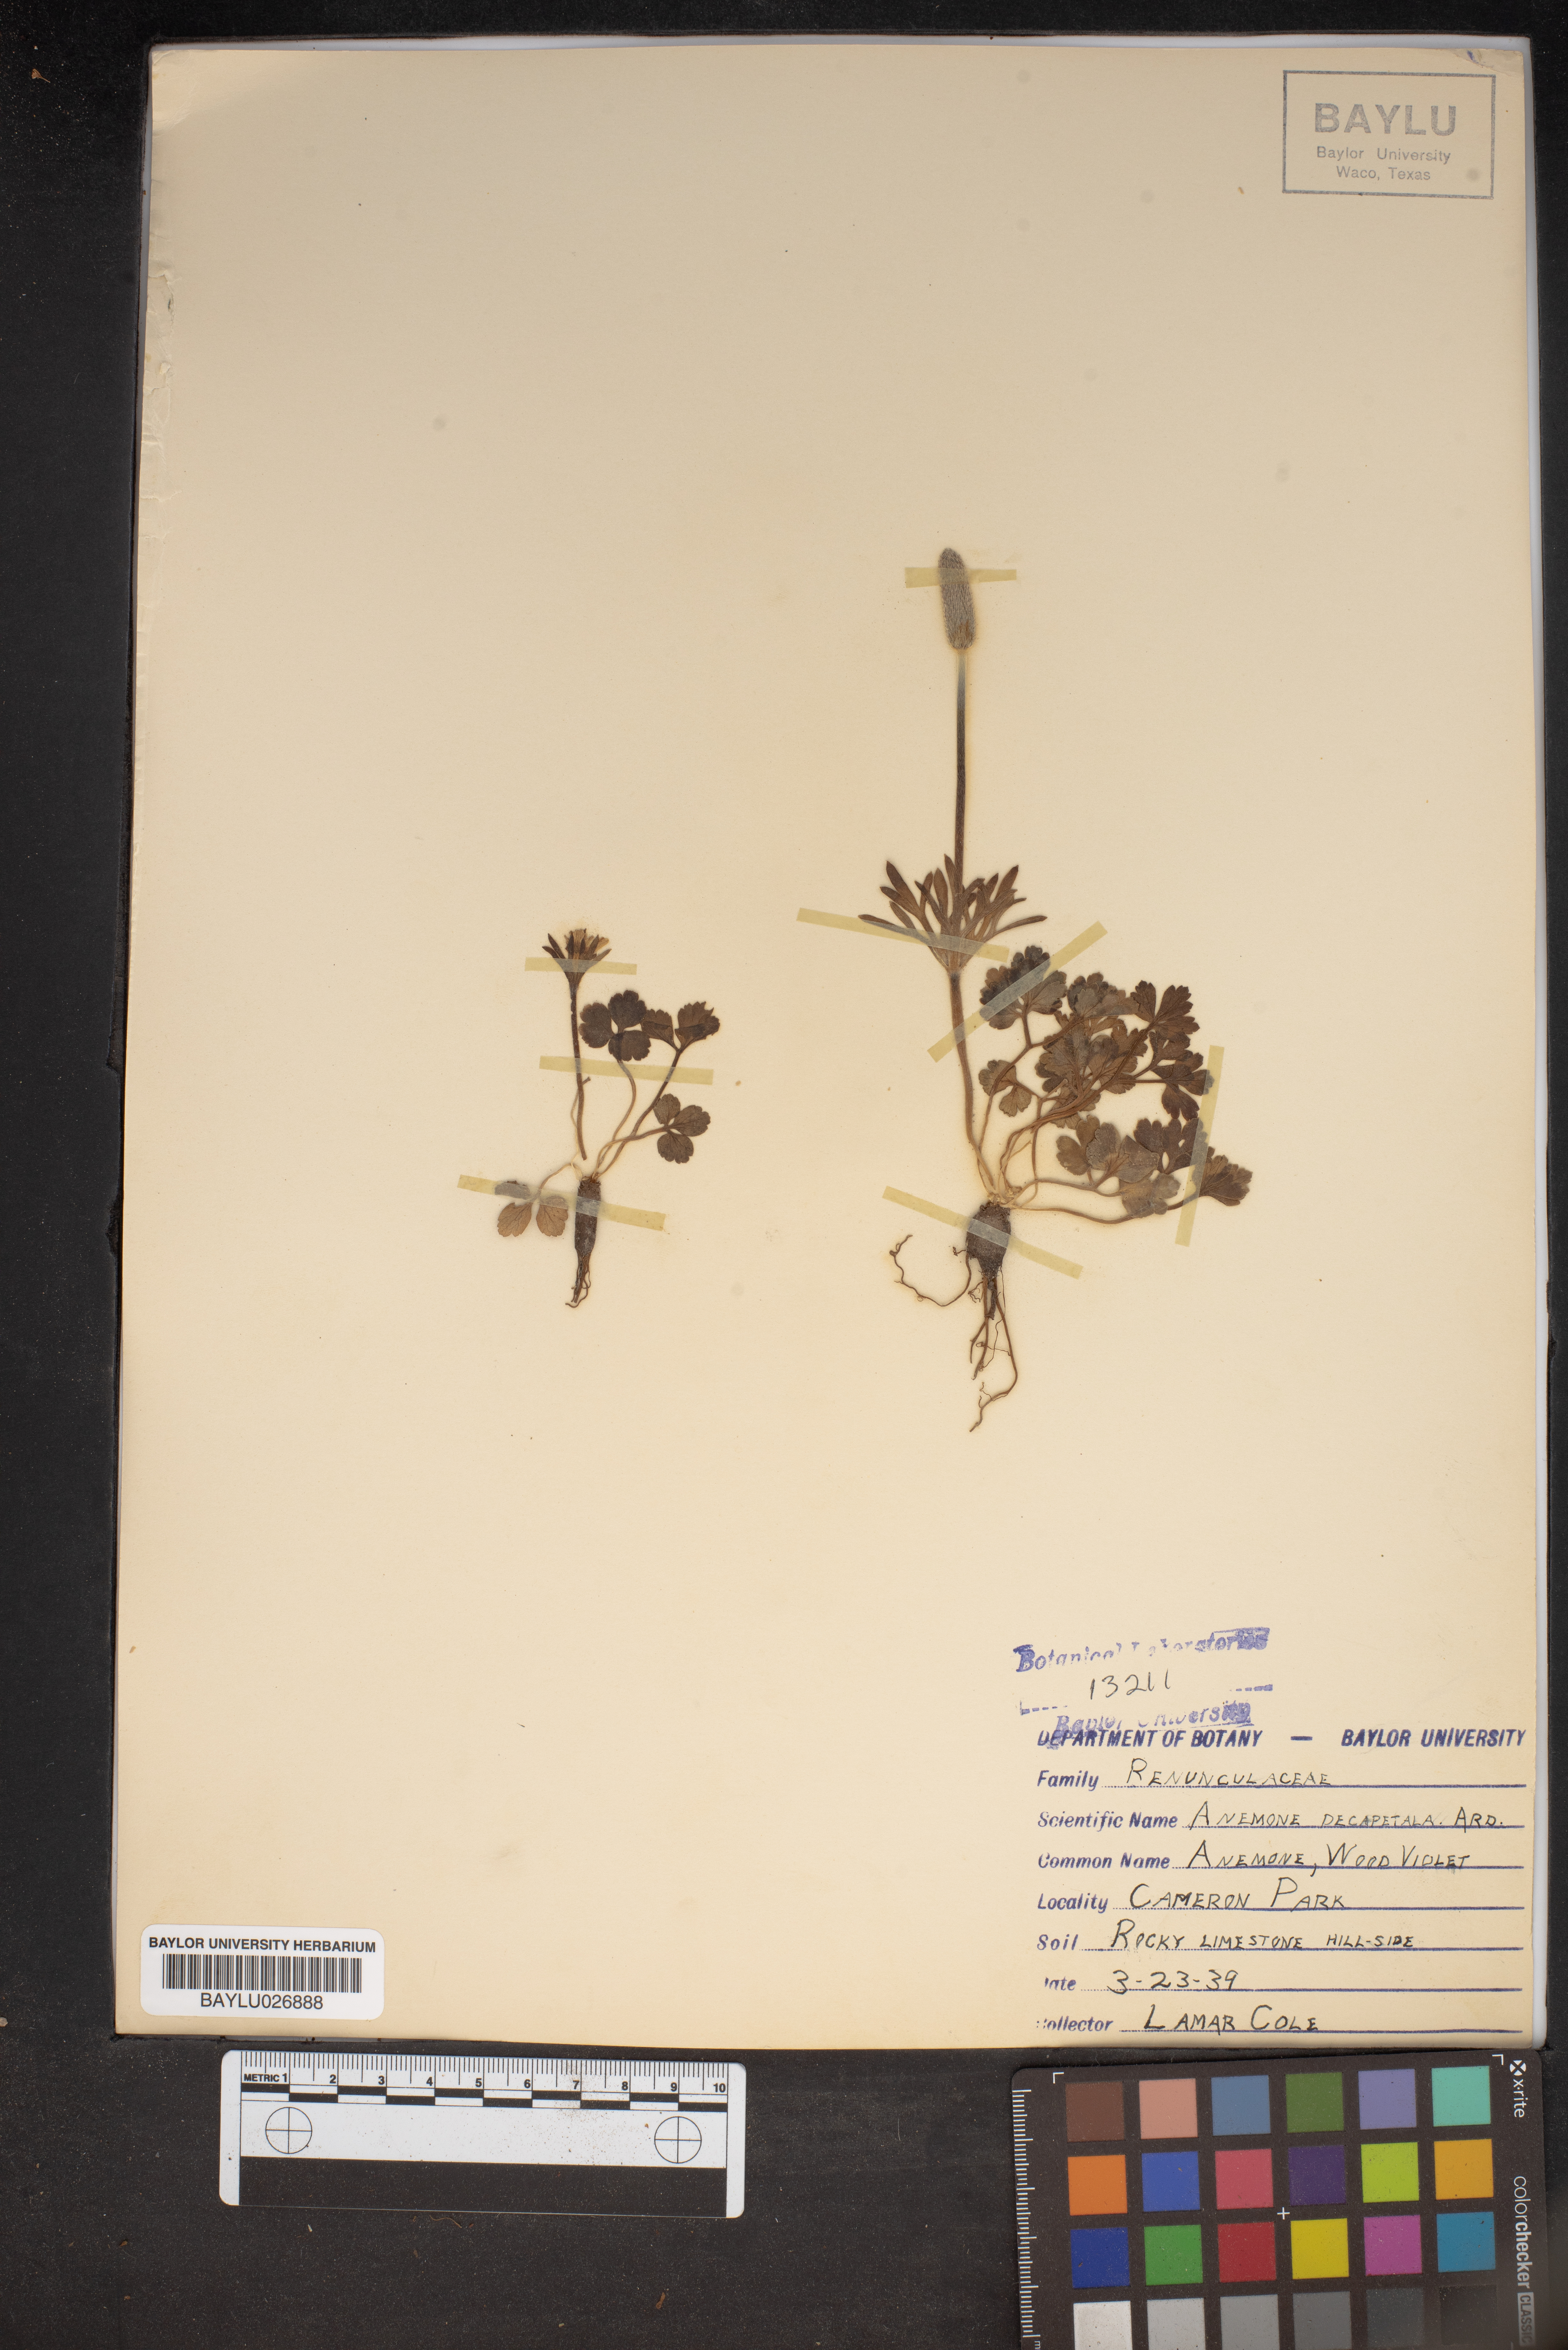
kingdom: Plantae
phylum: Tracheophyta
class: Magnoliopsida
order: Ranunculales
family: Ranunculaceae
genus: Anemone
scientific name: Anemone decapetala
